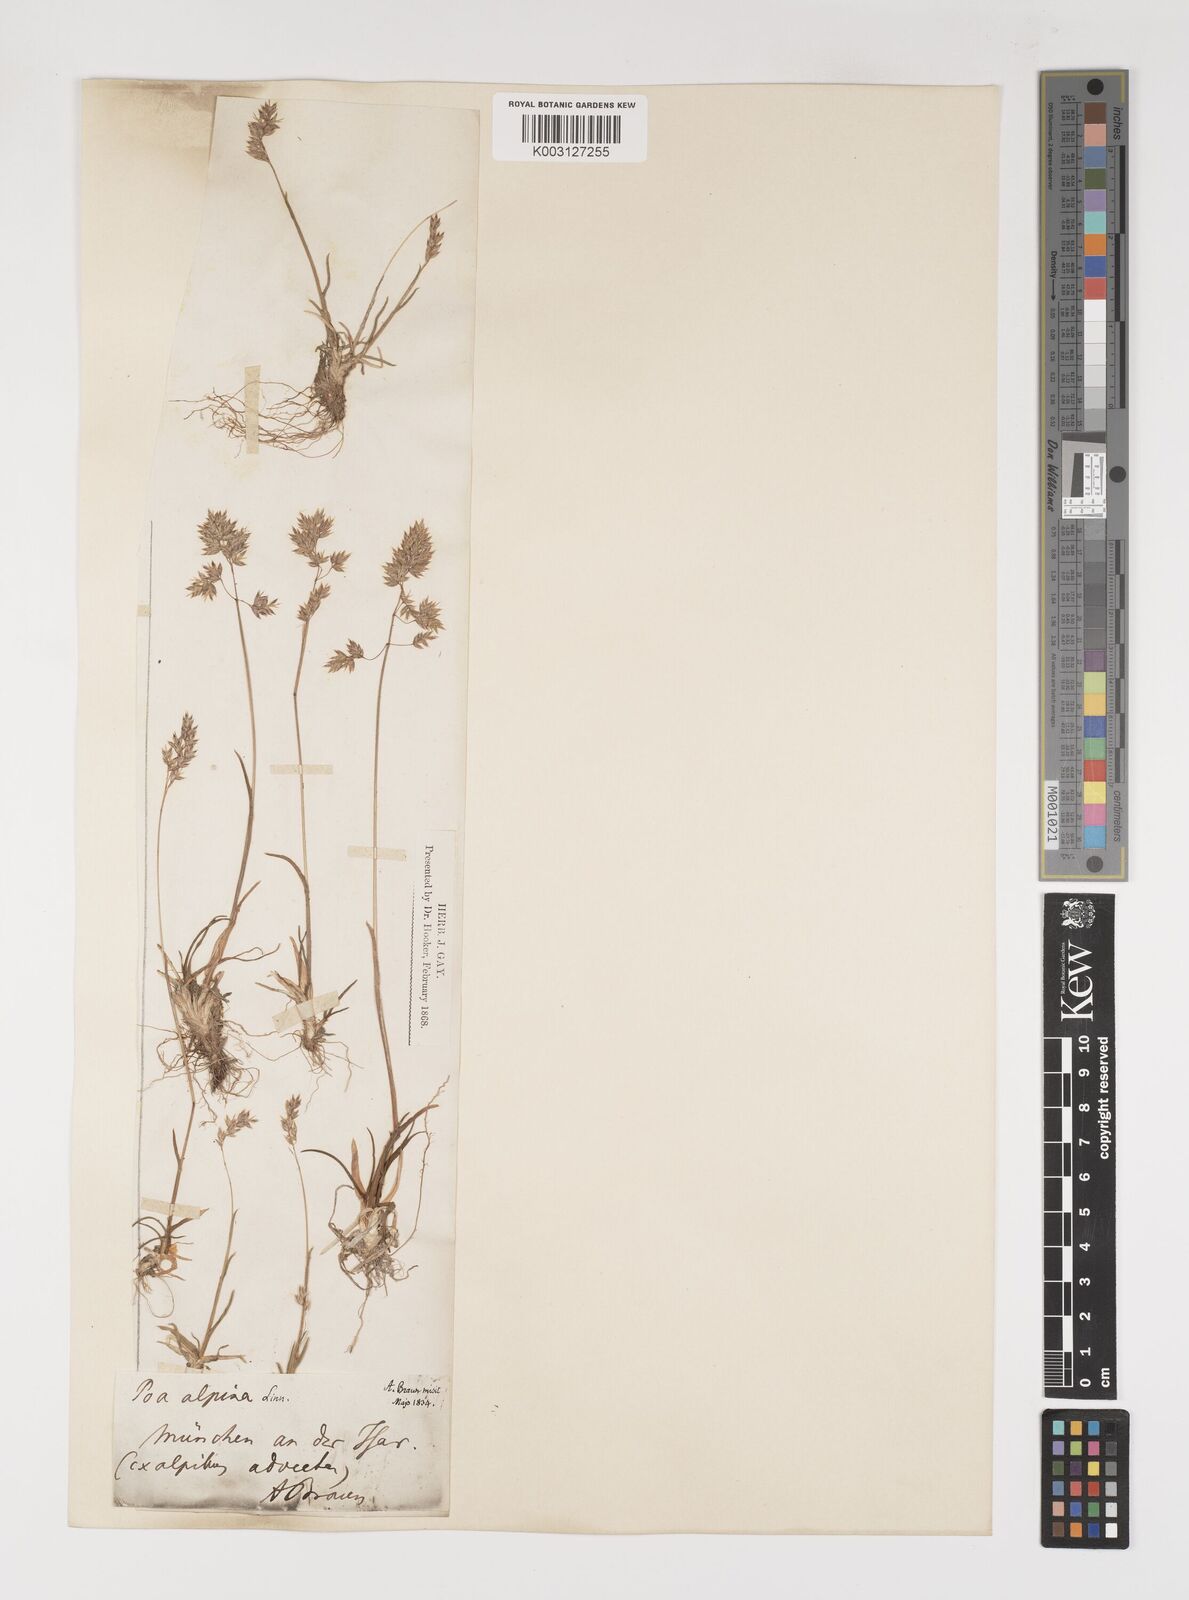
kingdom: Plantae
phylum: Tracheophyta
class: Liliopsida
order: Poales
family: Poaceae
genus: Poa
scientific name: Poa alpina
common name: Alpine bluegrass
